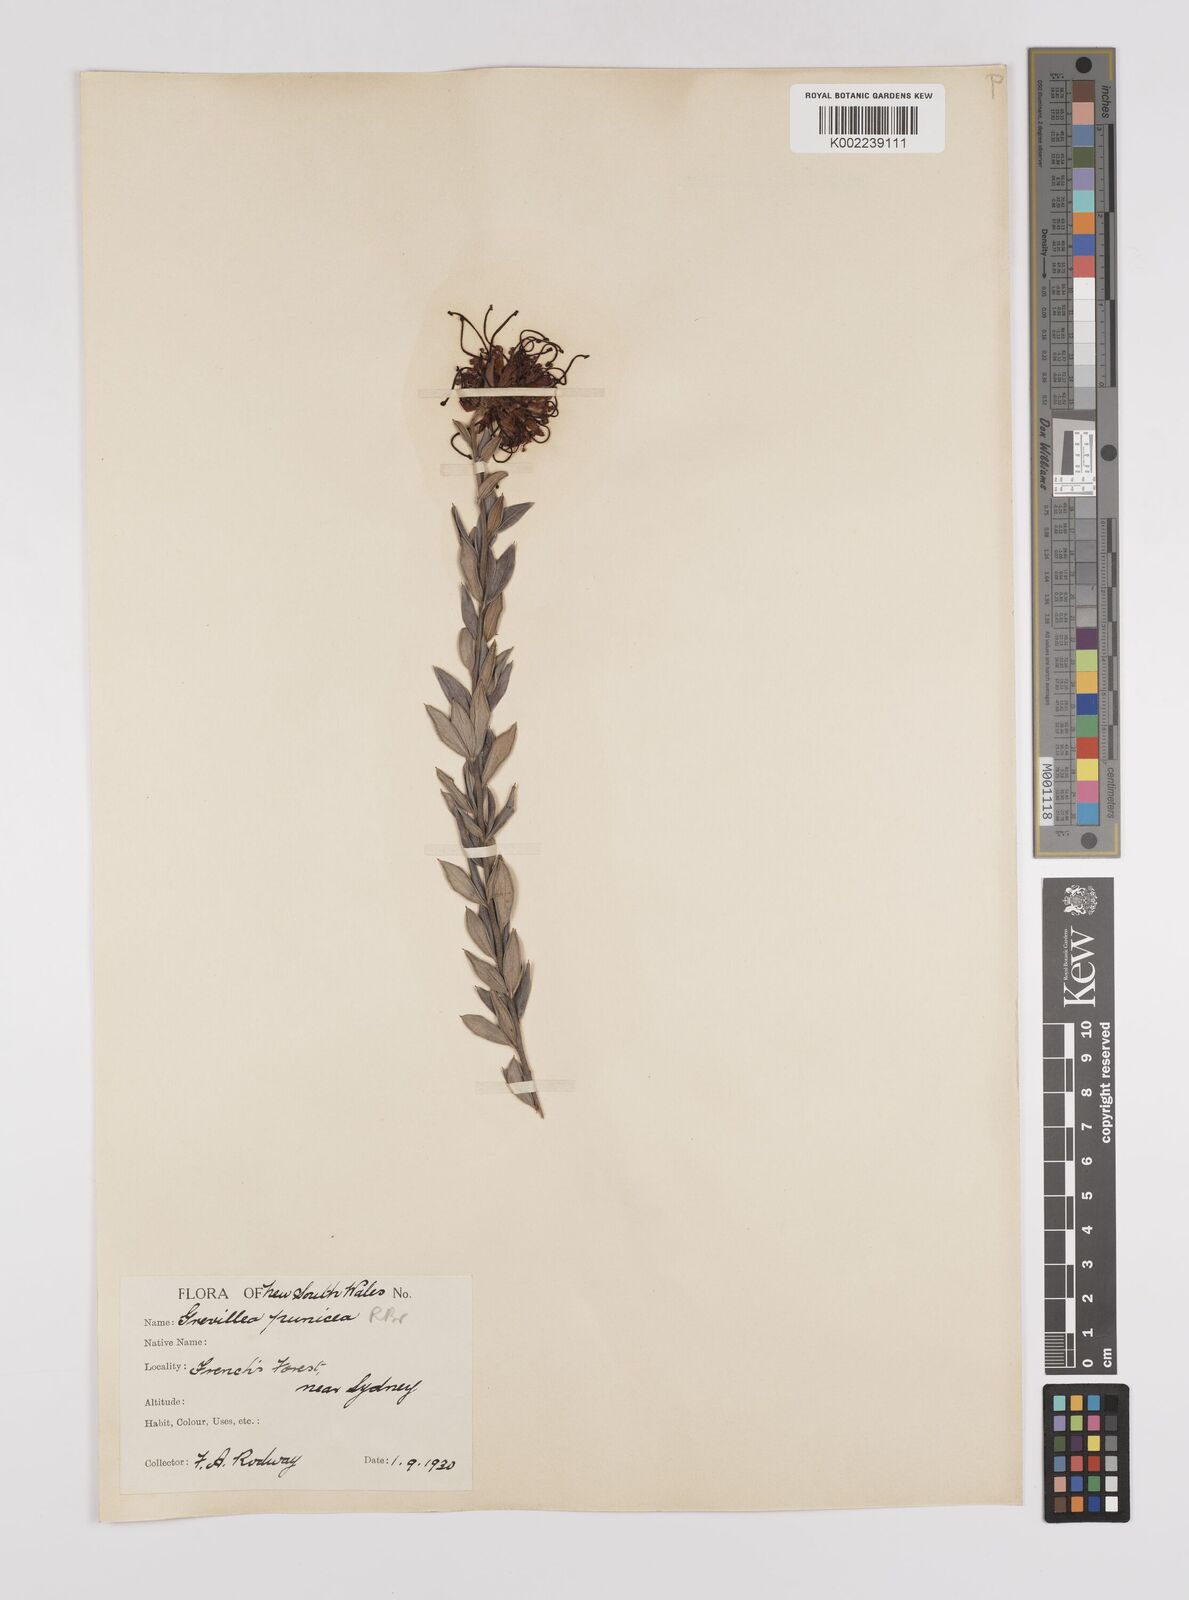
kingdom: Plantae
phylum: Tracheophyta
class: Magnoliopsida
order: Proteales
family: Proteaceae
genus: Grevillea
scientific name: Grevillea speciosa
